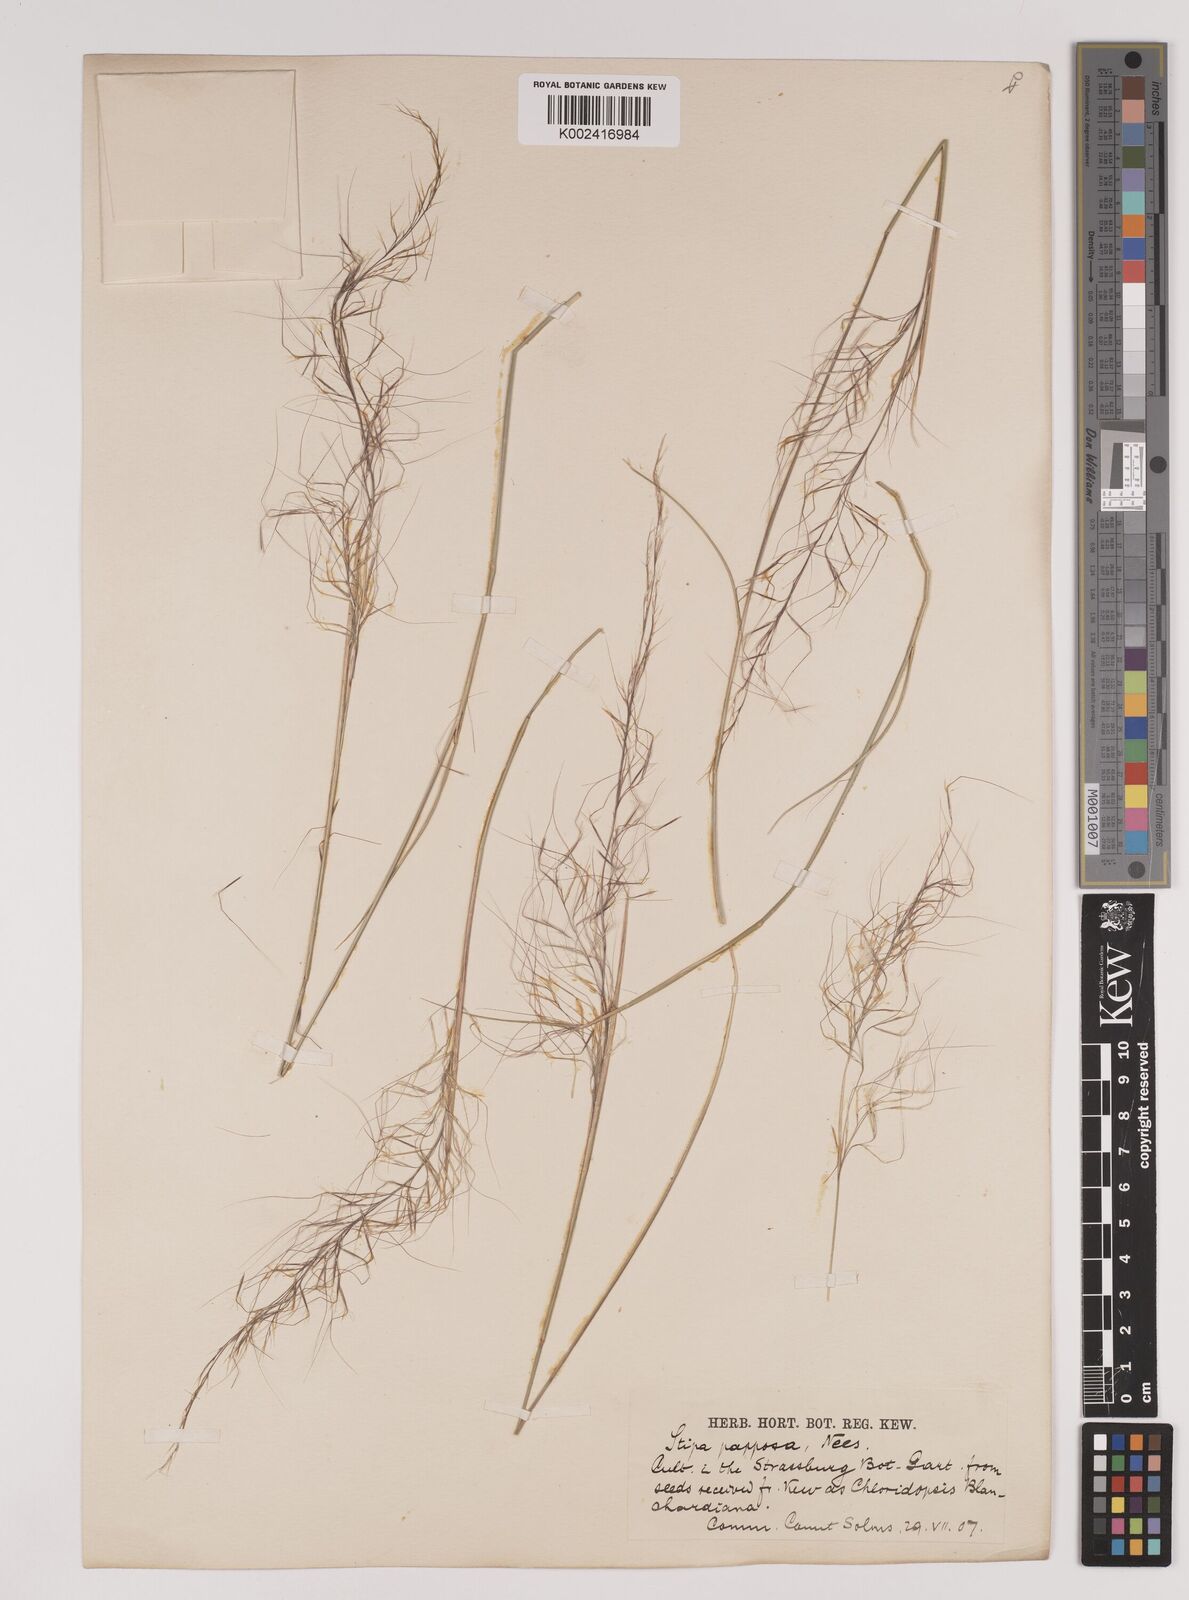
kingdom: Plantae
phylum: Tracheophyta
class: Liliopsida
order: Poales
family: Poaceae
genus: Jarava
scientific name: Jarava plumosa
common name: South american rice grass
